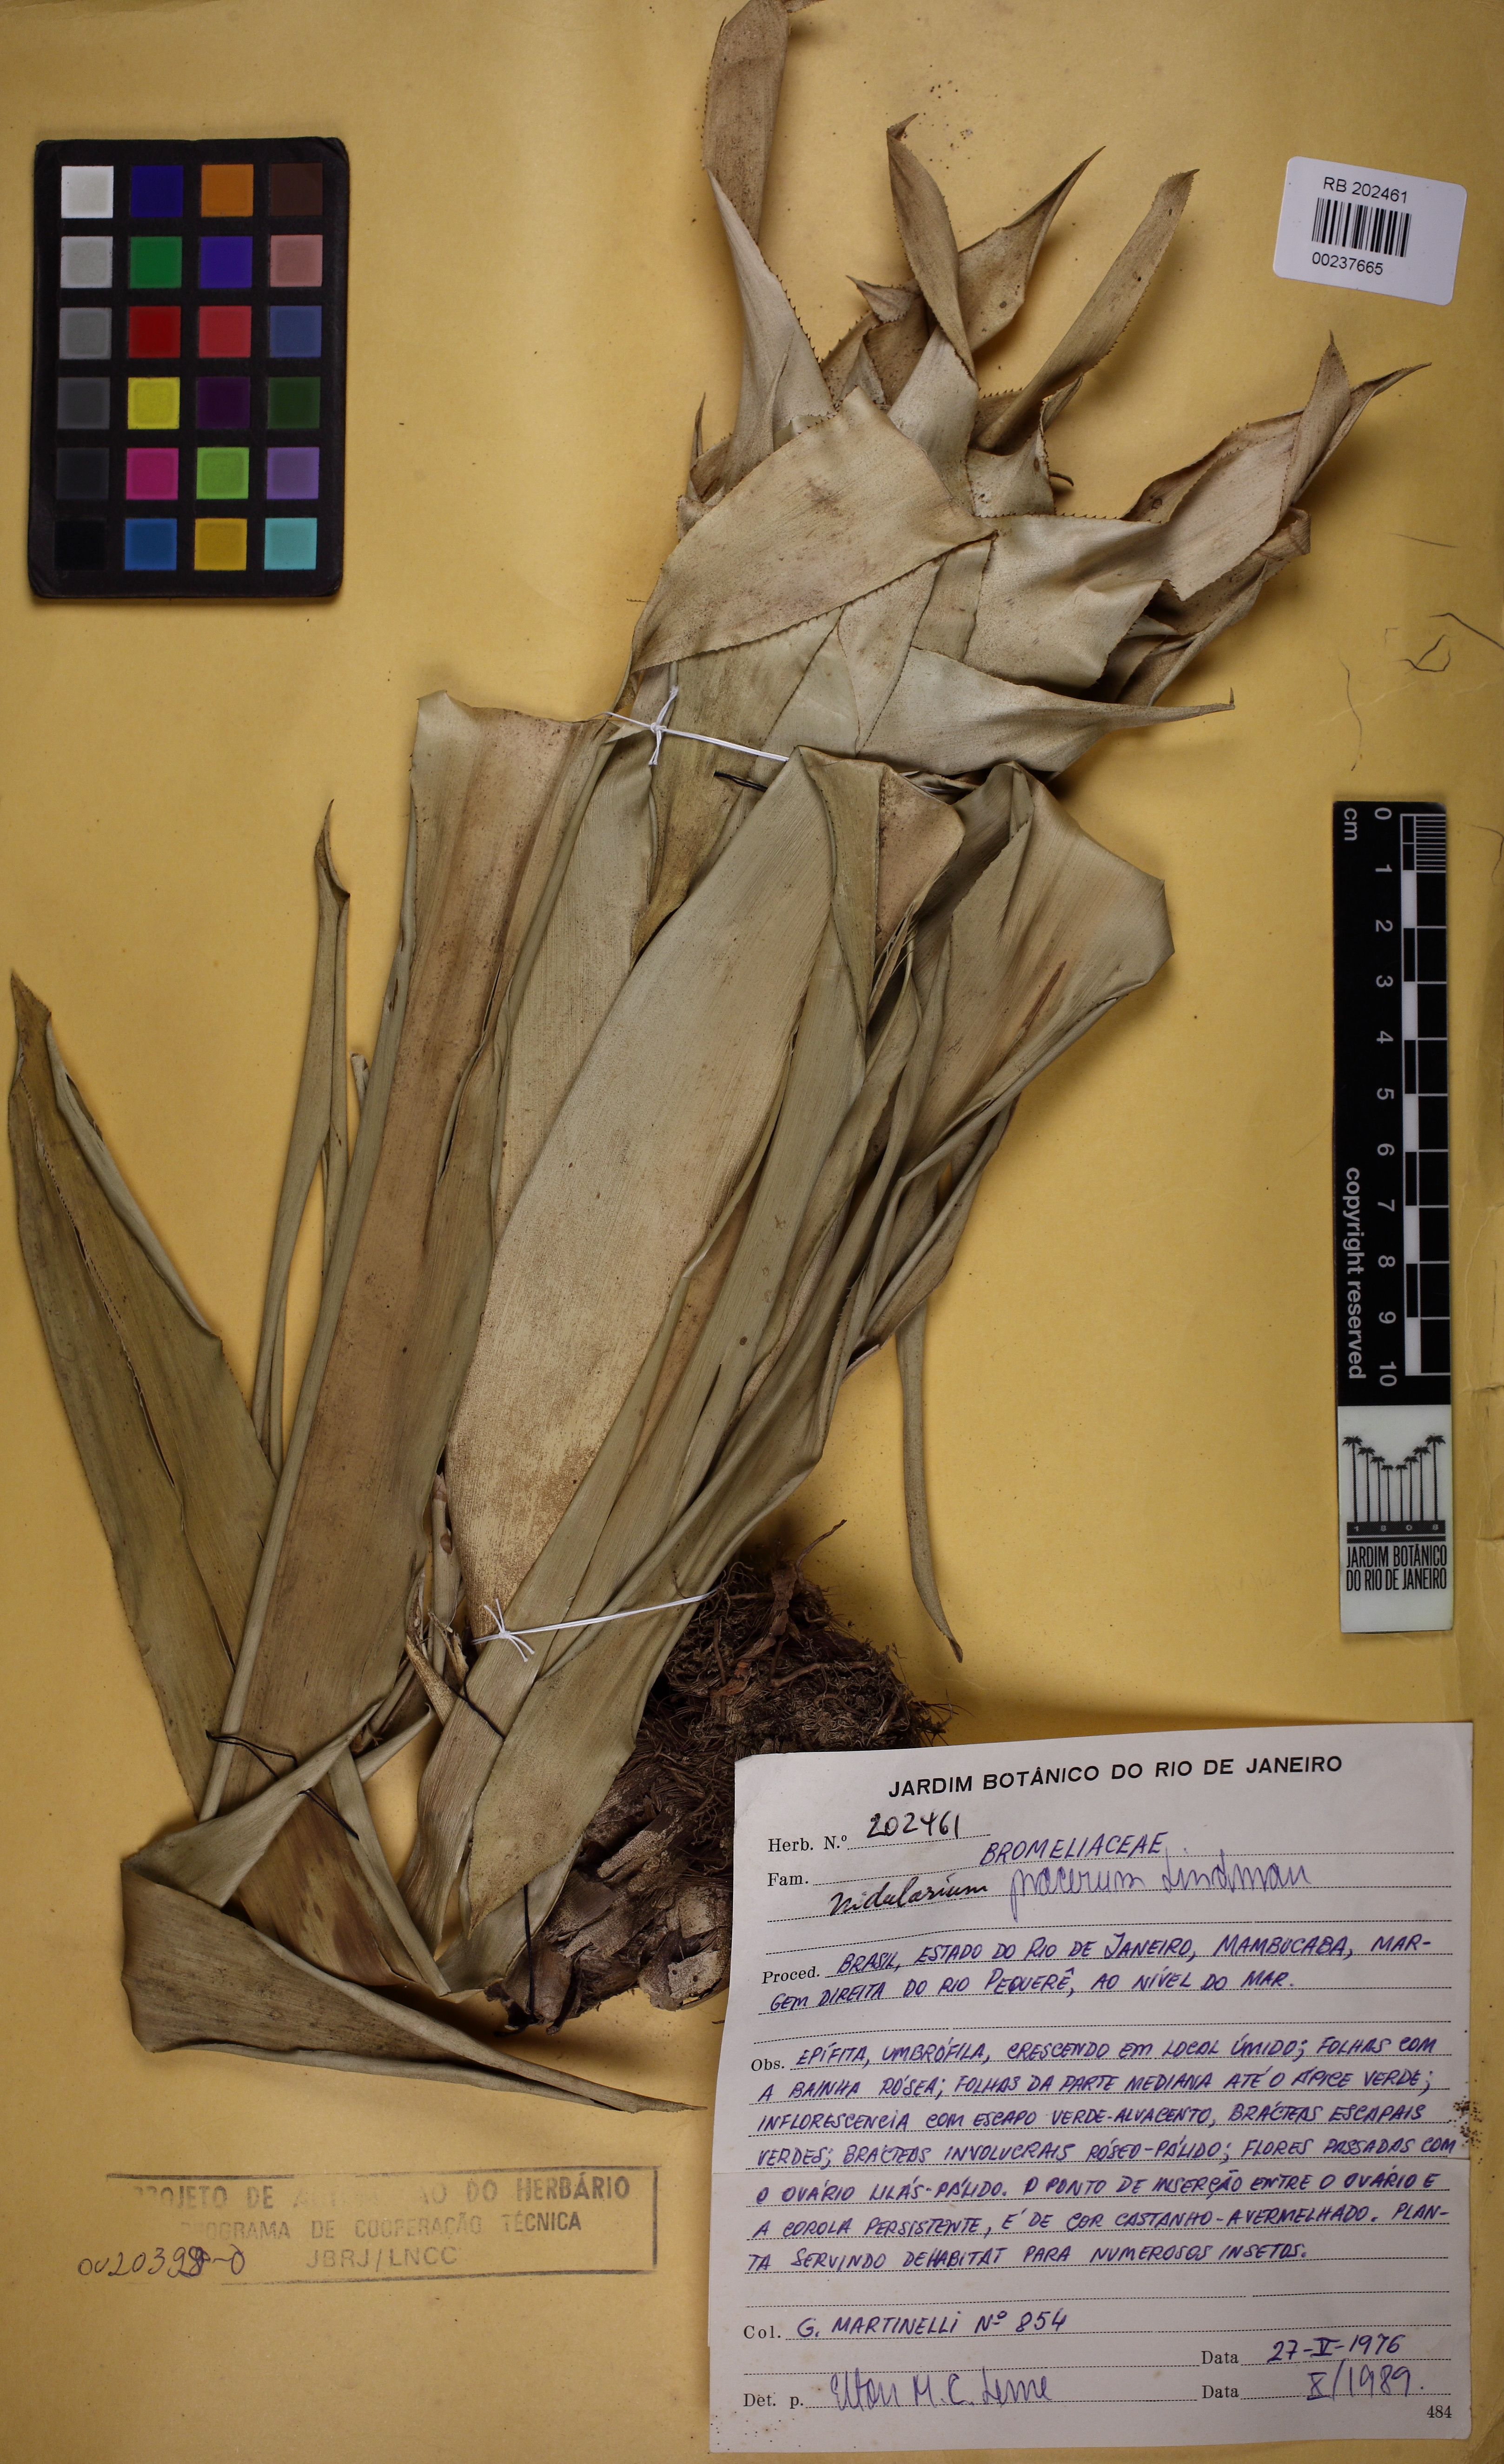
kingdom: Plantae
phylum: Tracheophyta
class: Liliopsida
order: Poales
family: Bromeliaceae
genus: Nidularium
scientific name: Nidularium procerum
